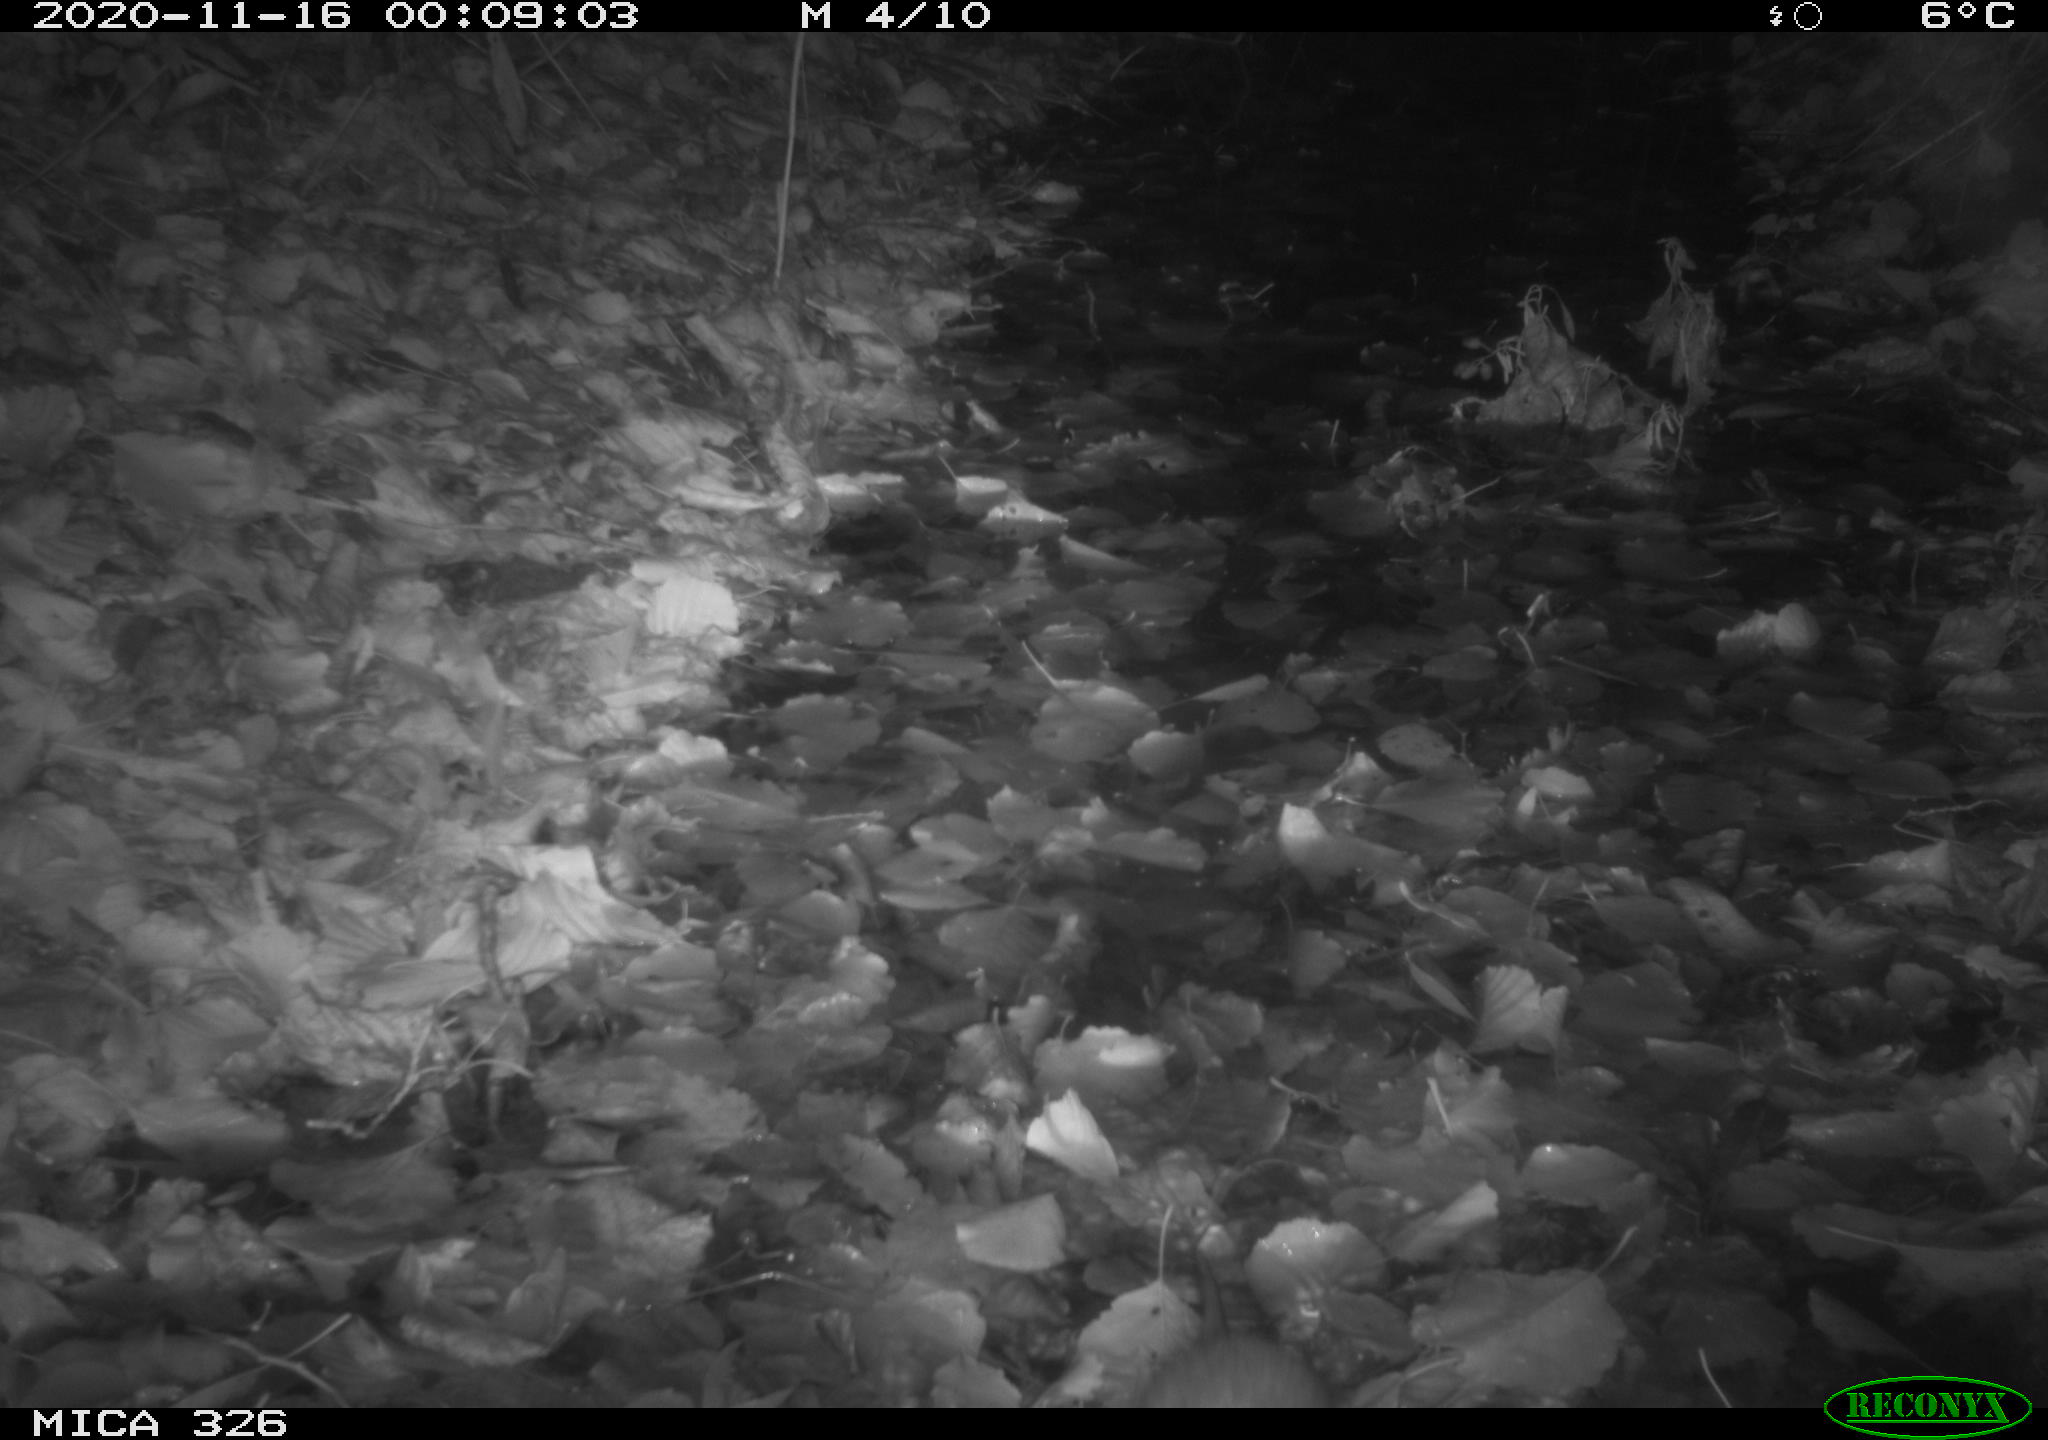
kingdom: Animalia
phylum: Chordata
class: Mammalia
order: Rodentia
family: Muridae
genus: Rattus
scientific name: Rattus norvegicus
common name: Brown rat
